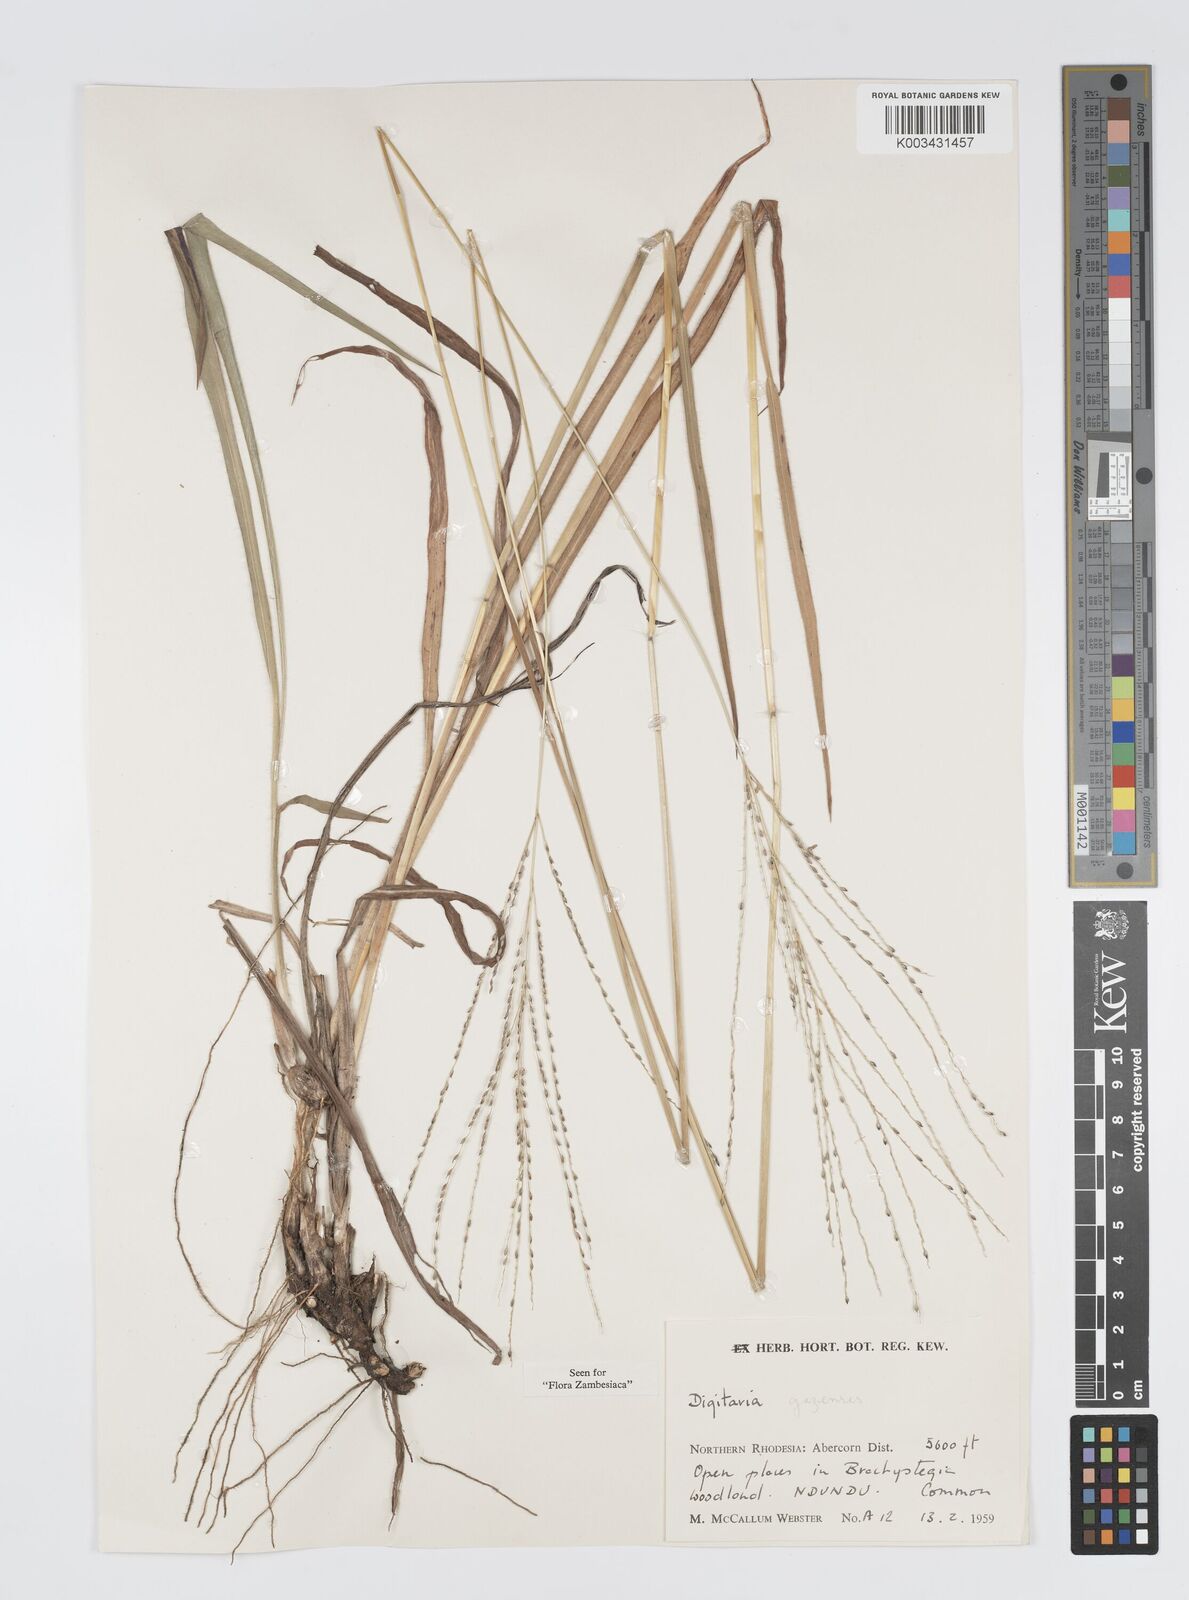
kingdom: Plantae
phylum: Tracheophyta
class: Liliopsida
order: Poales
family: Poaceae
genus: Digitaria
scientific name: Digitaria gazensis
